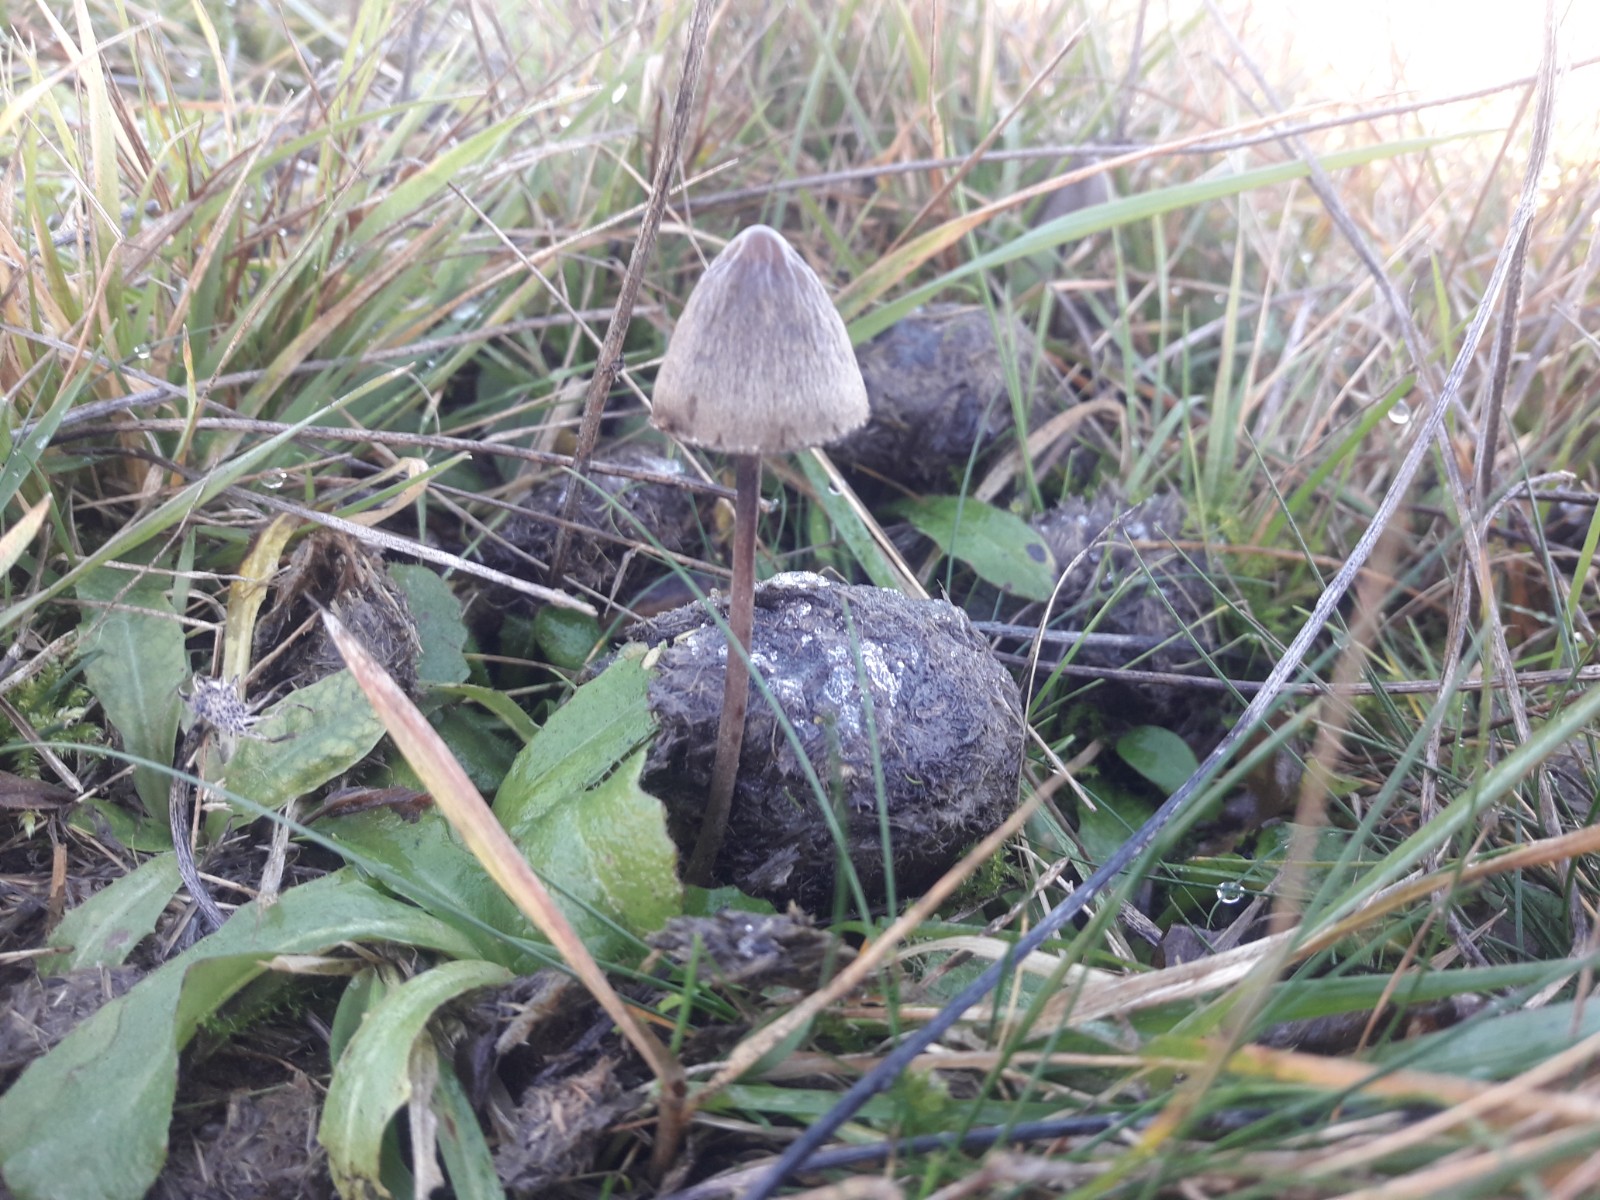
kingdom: Fungi
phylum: Basidiomycota
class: Agaricomycetes
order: Agaricales
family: Bolbitiaceae
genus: Panaeolus
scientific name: Panaeolus papilionaceus
